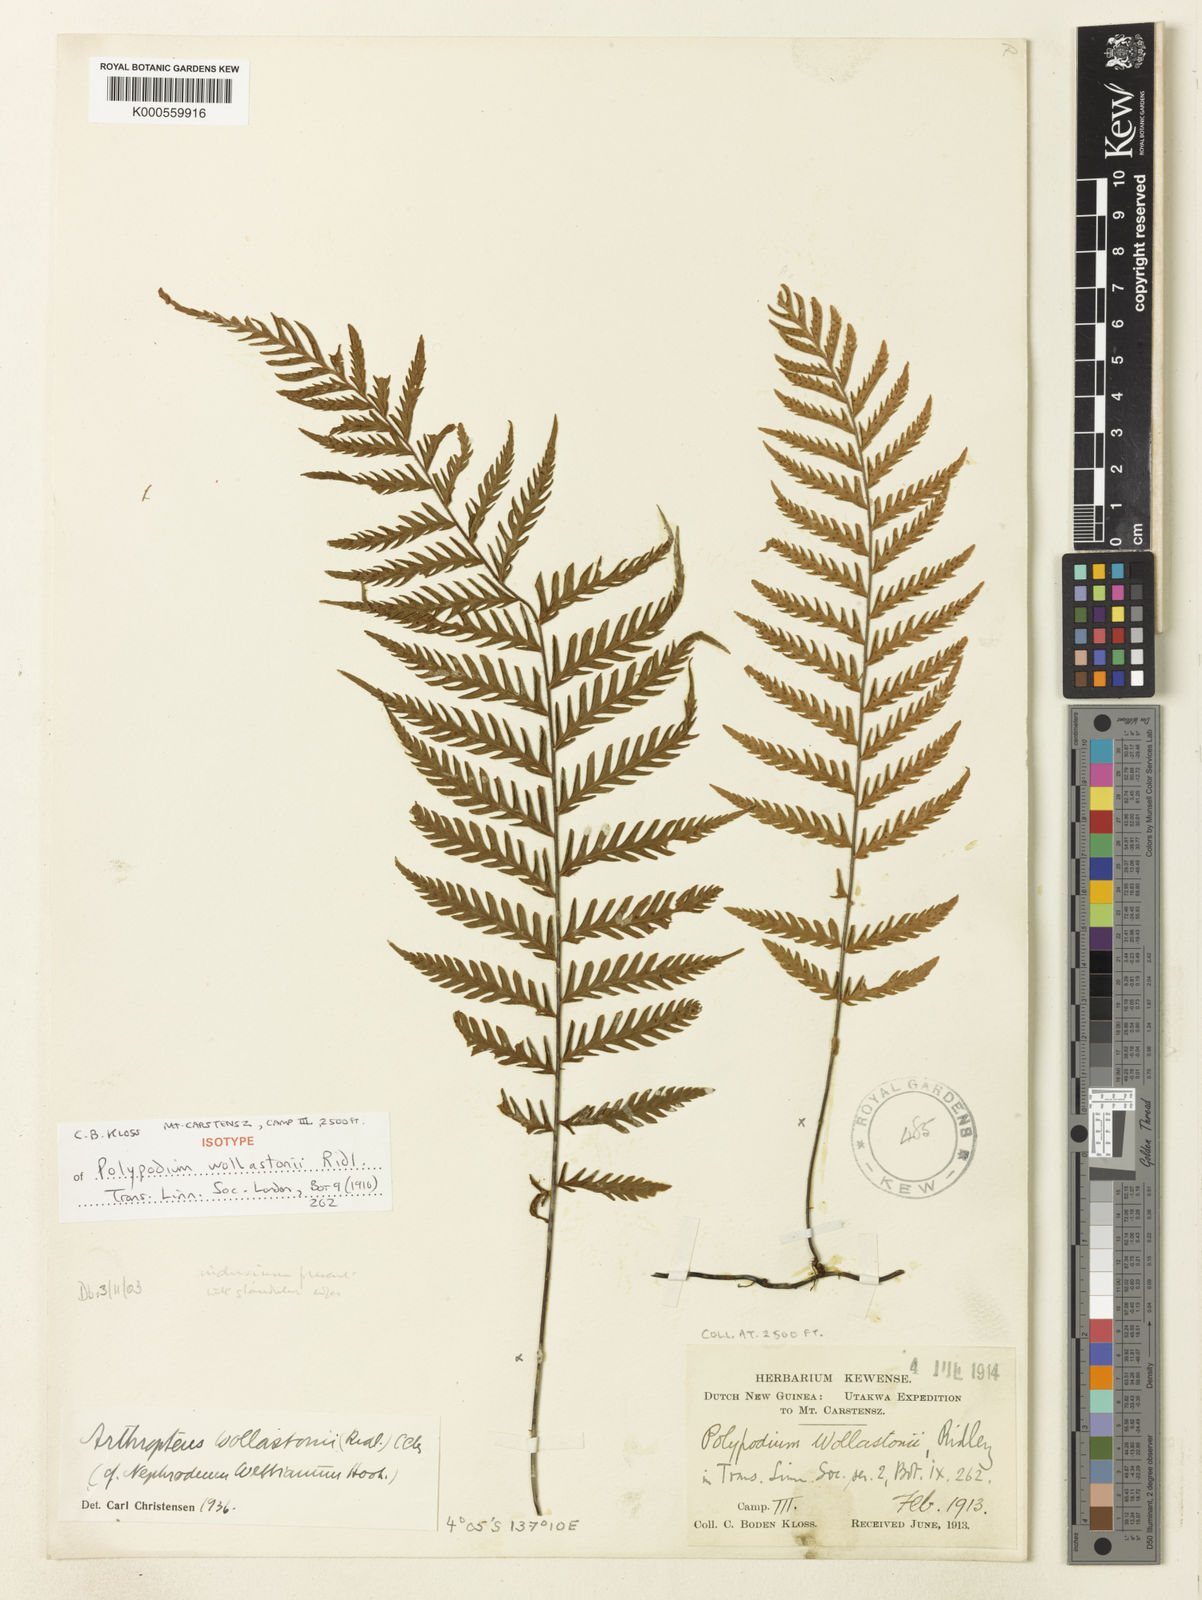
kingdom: Plantae
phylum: Tracheophyta
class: Polypodiopsida
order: Polypodiales
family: Tectariaceae
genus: Arthropteris
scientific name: Arthropteris articulata
